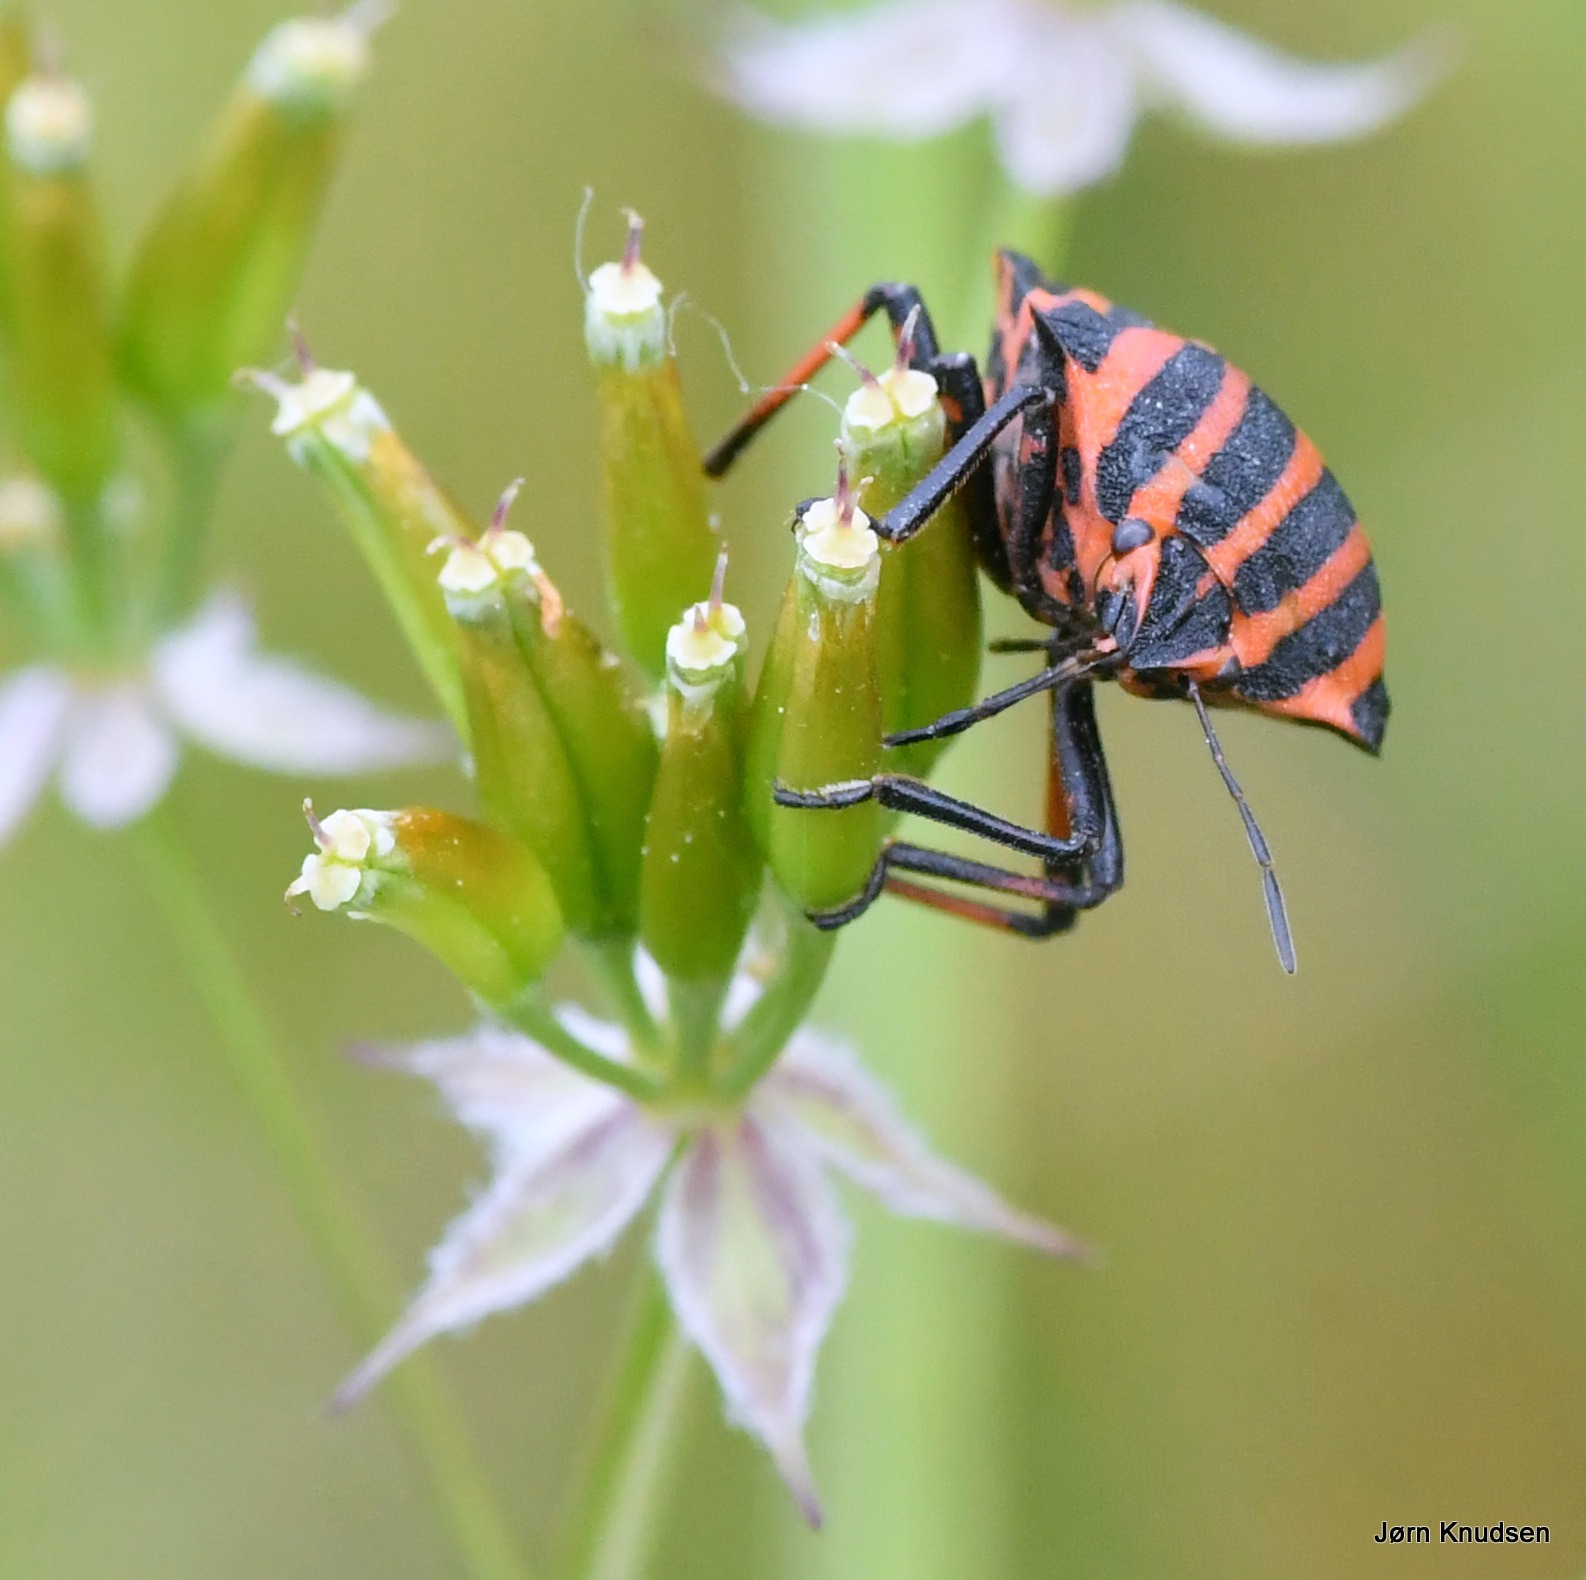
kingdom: Animalia
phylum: Arthropoda
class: Insecta
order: Hemiptera
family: Pentatomidae
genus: Graphosoma
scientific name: Graphosoma italicum
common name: Stribetæge
